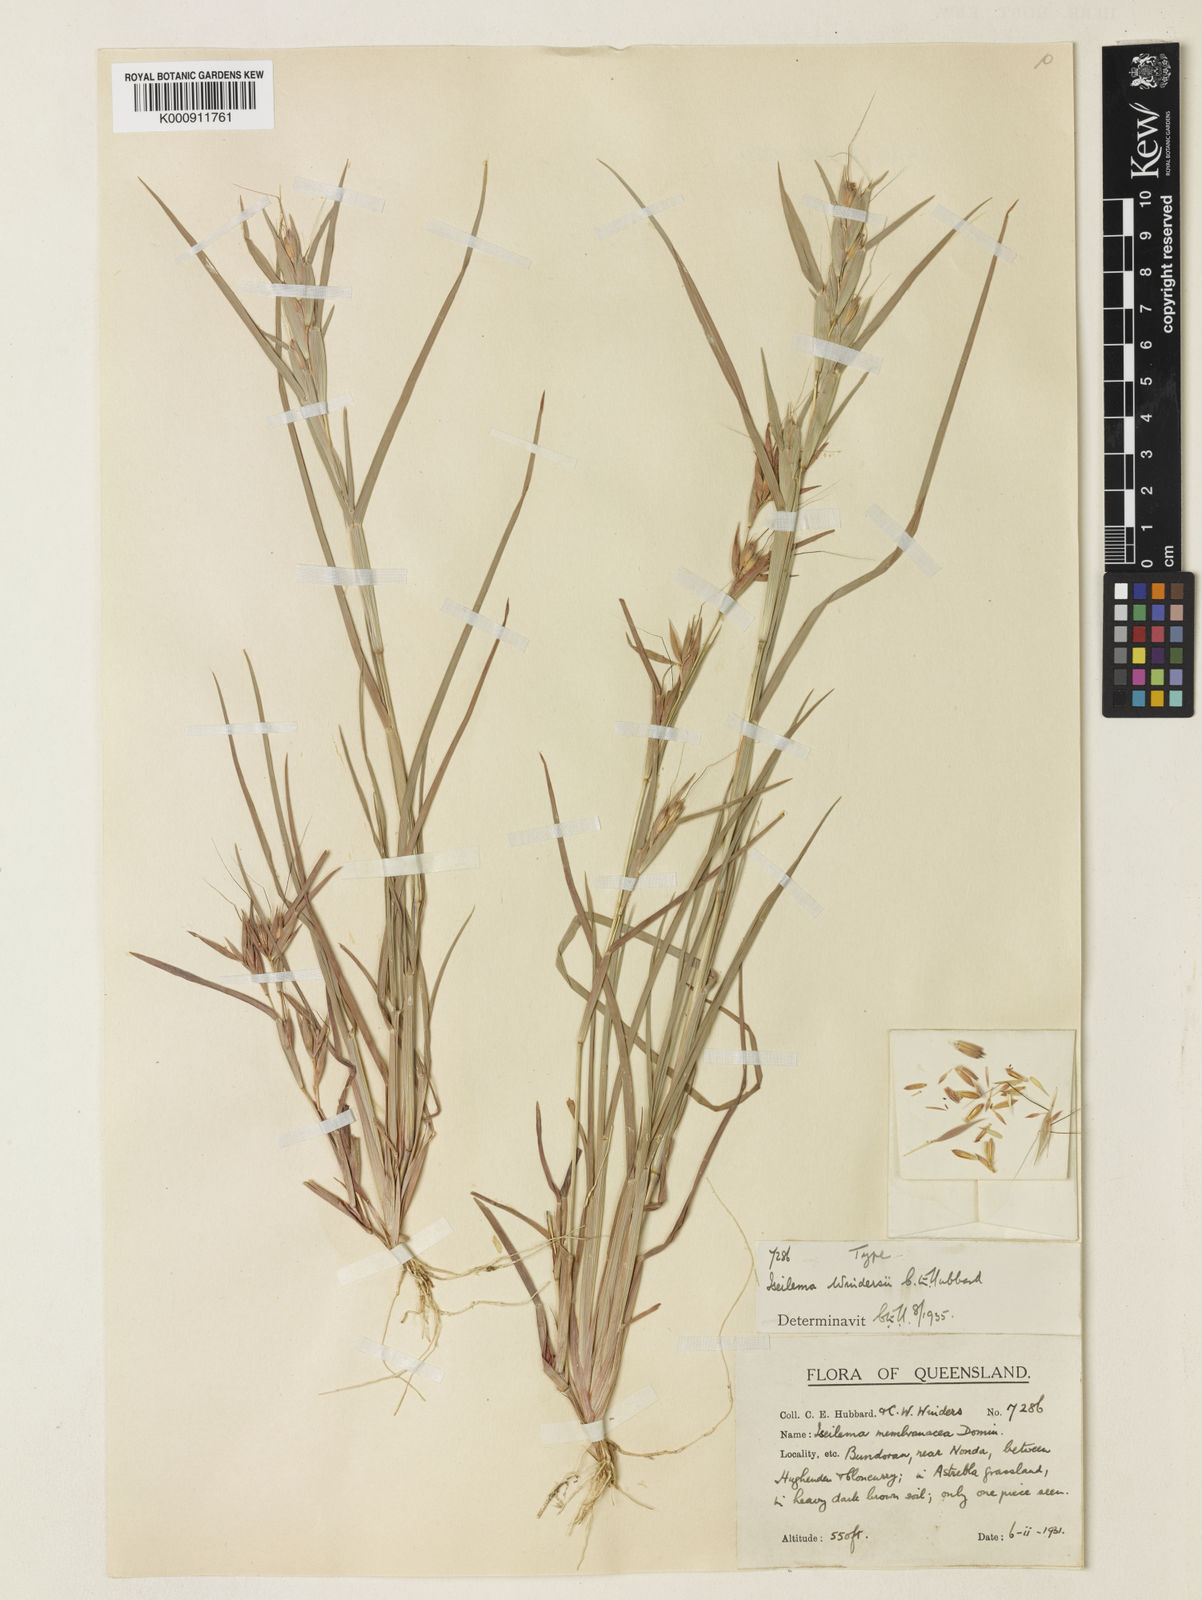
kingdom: Plantae
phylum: Tracheophyta
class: Liliopsida
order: Poales
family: Poaceae
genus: Iseilema
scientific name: Iseilema windersii
